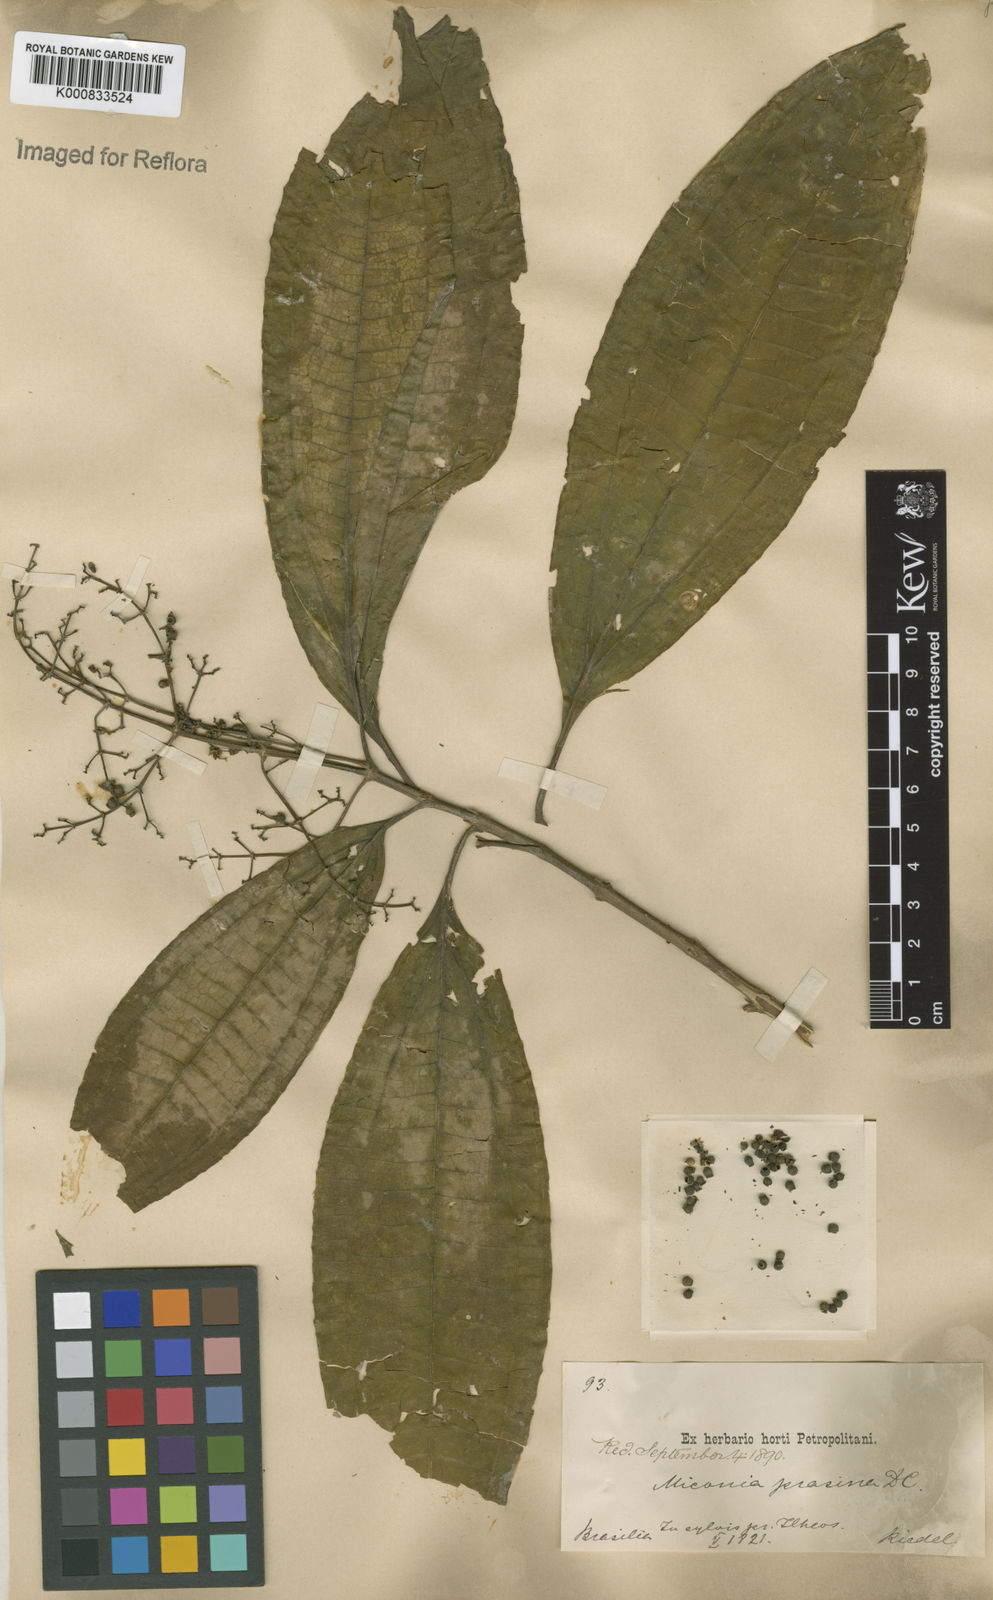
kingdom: Plantae
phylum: Tracheophyta
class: Magnoliopsida
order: Myrtales
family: Melastomataceae
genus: Miconia
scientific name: Miconia prasina
